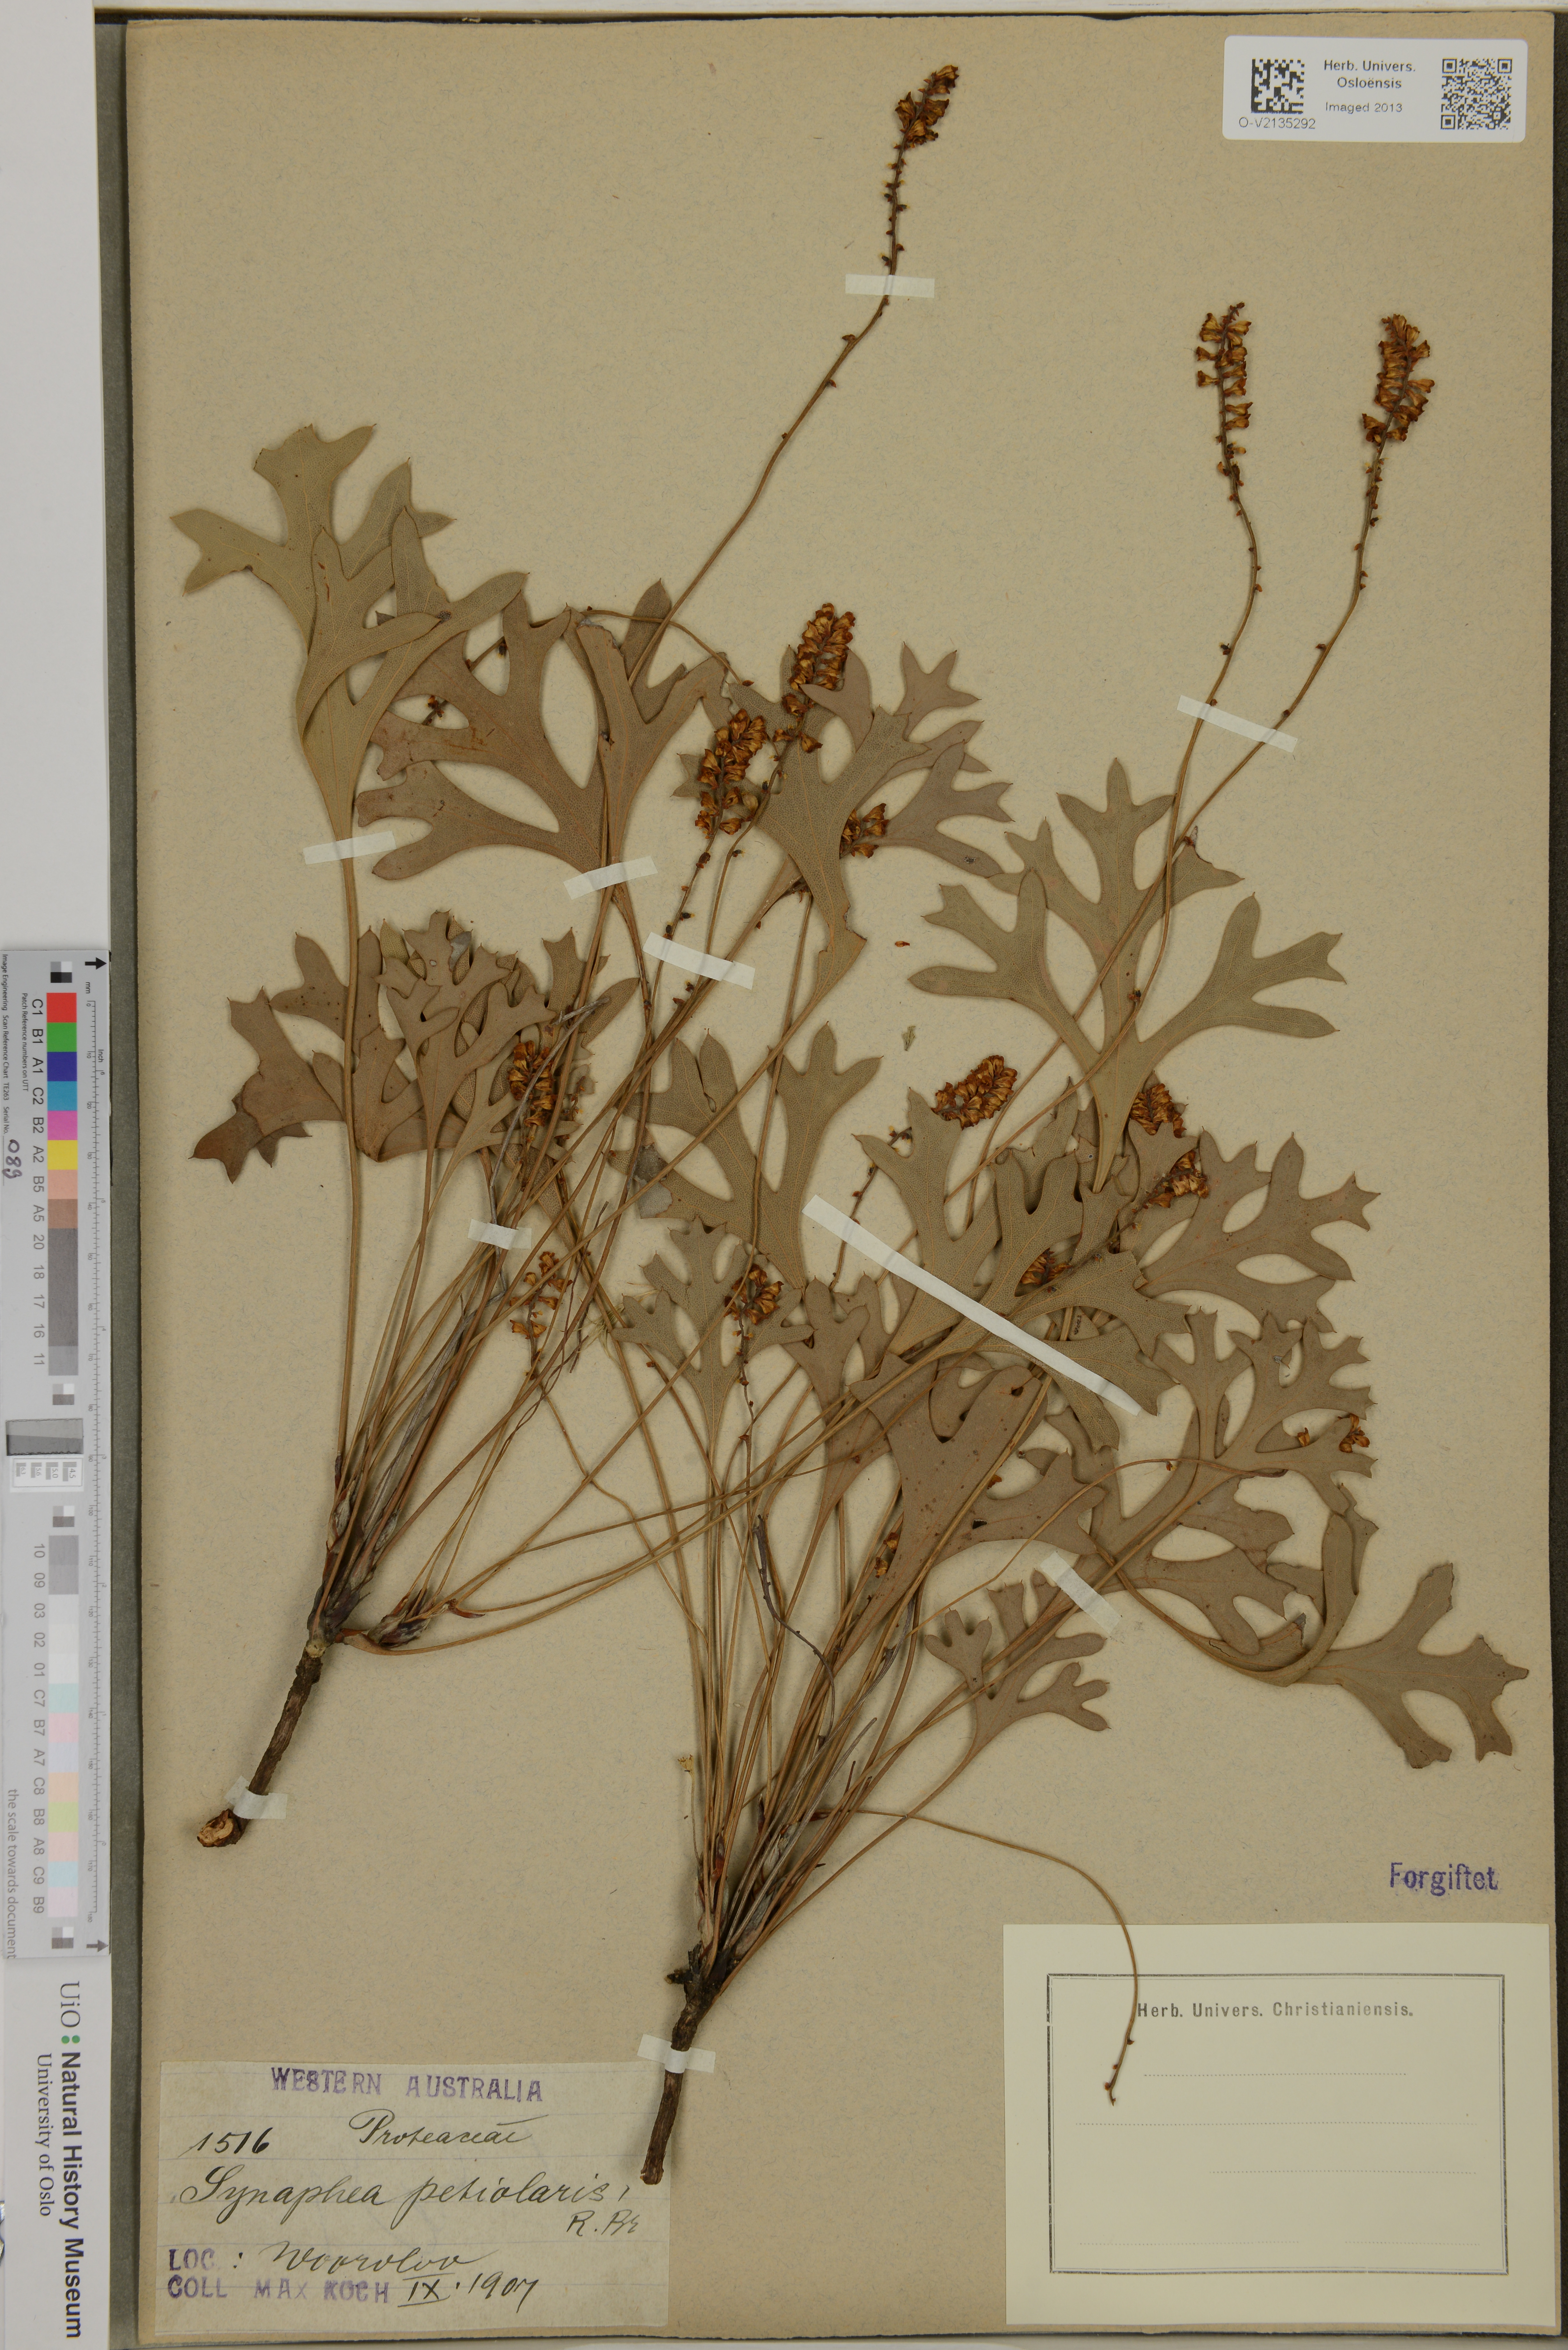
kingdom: Plantae
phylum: Tracheophyta
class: Magnoliopsida
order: Proteales
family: Proteaceae
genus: Synaphea
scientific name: Synaphea petiolaris
